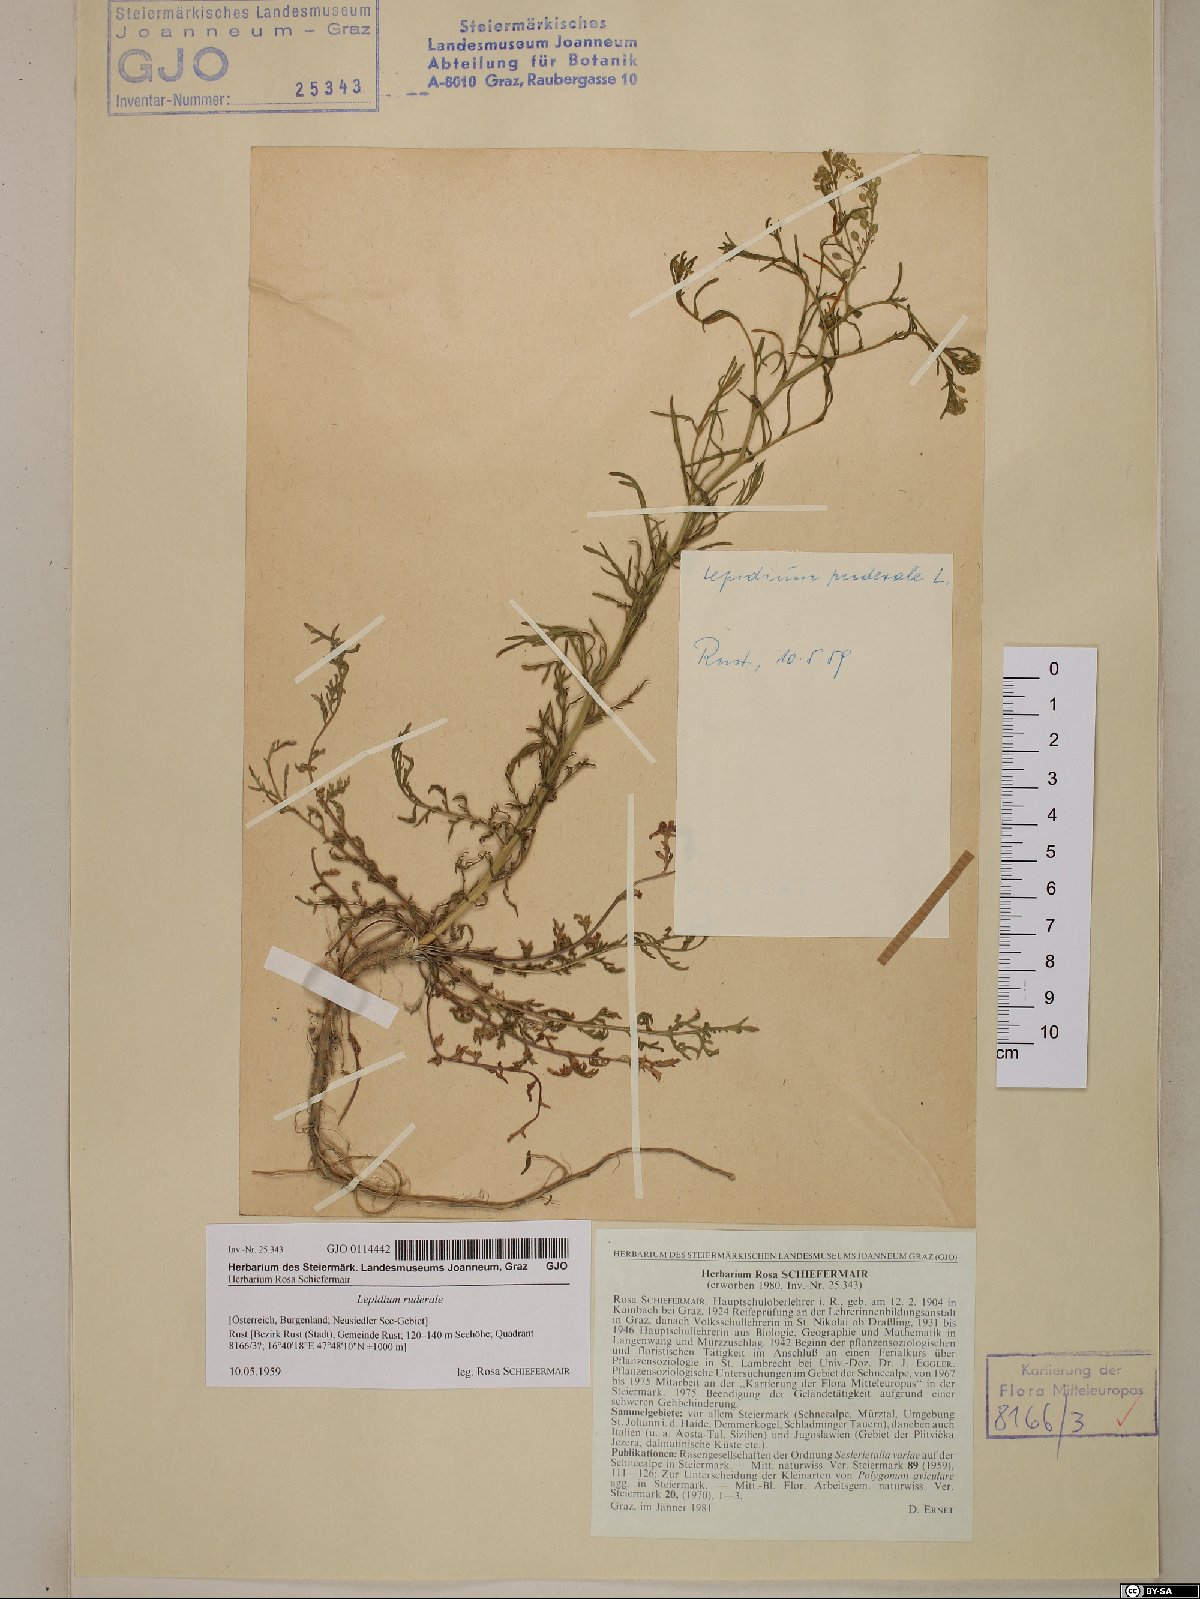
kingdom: Plantae
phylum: Tracheophyta
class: Magnoliopsida
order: Brassicales
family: Brassicaceae
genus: Lepidium
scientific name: Lepidium ruderale
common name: Narrow-leaved pepperwort
